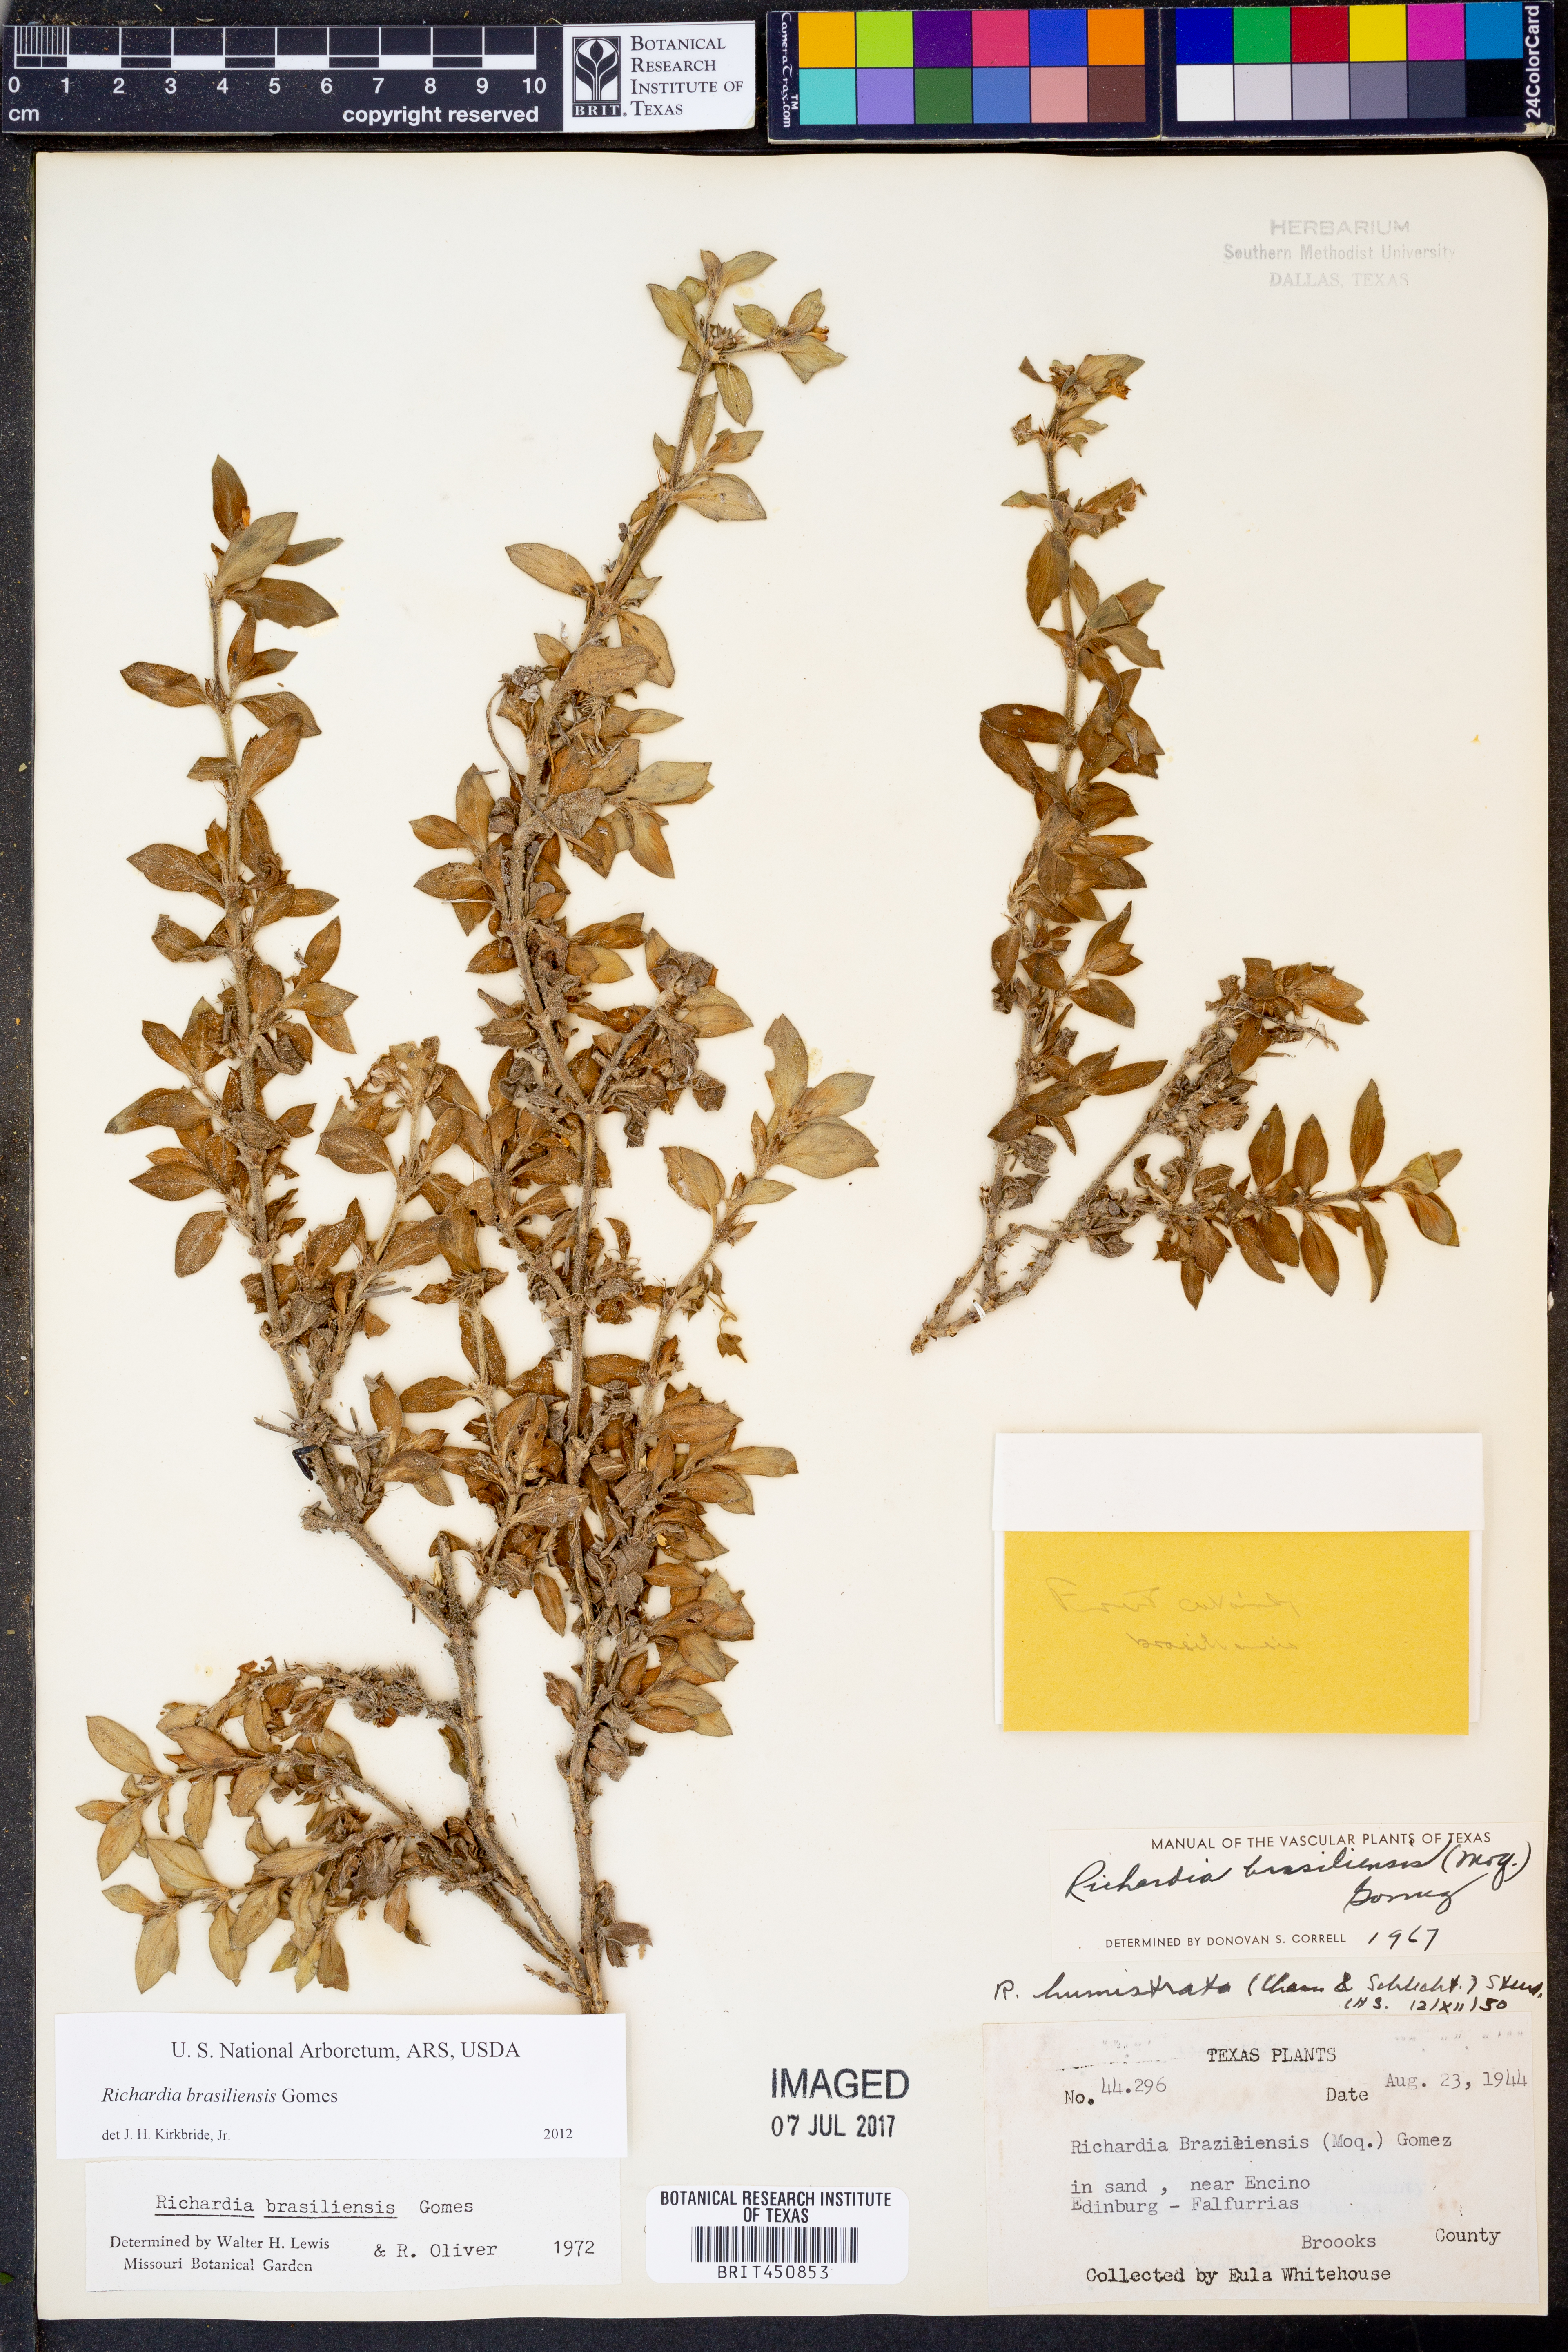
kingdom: Plantae
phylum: Tracheophyta
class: Magnoliopsida
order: Gentianales
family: Rubiaceae
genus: Richardia
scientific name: Richardia brasiliensis
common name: Tropical mexican clover
